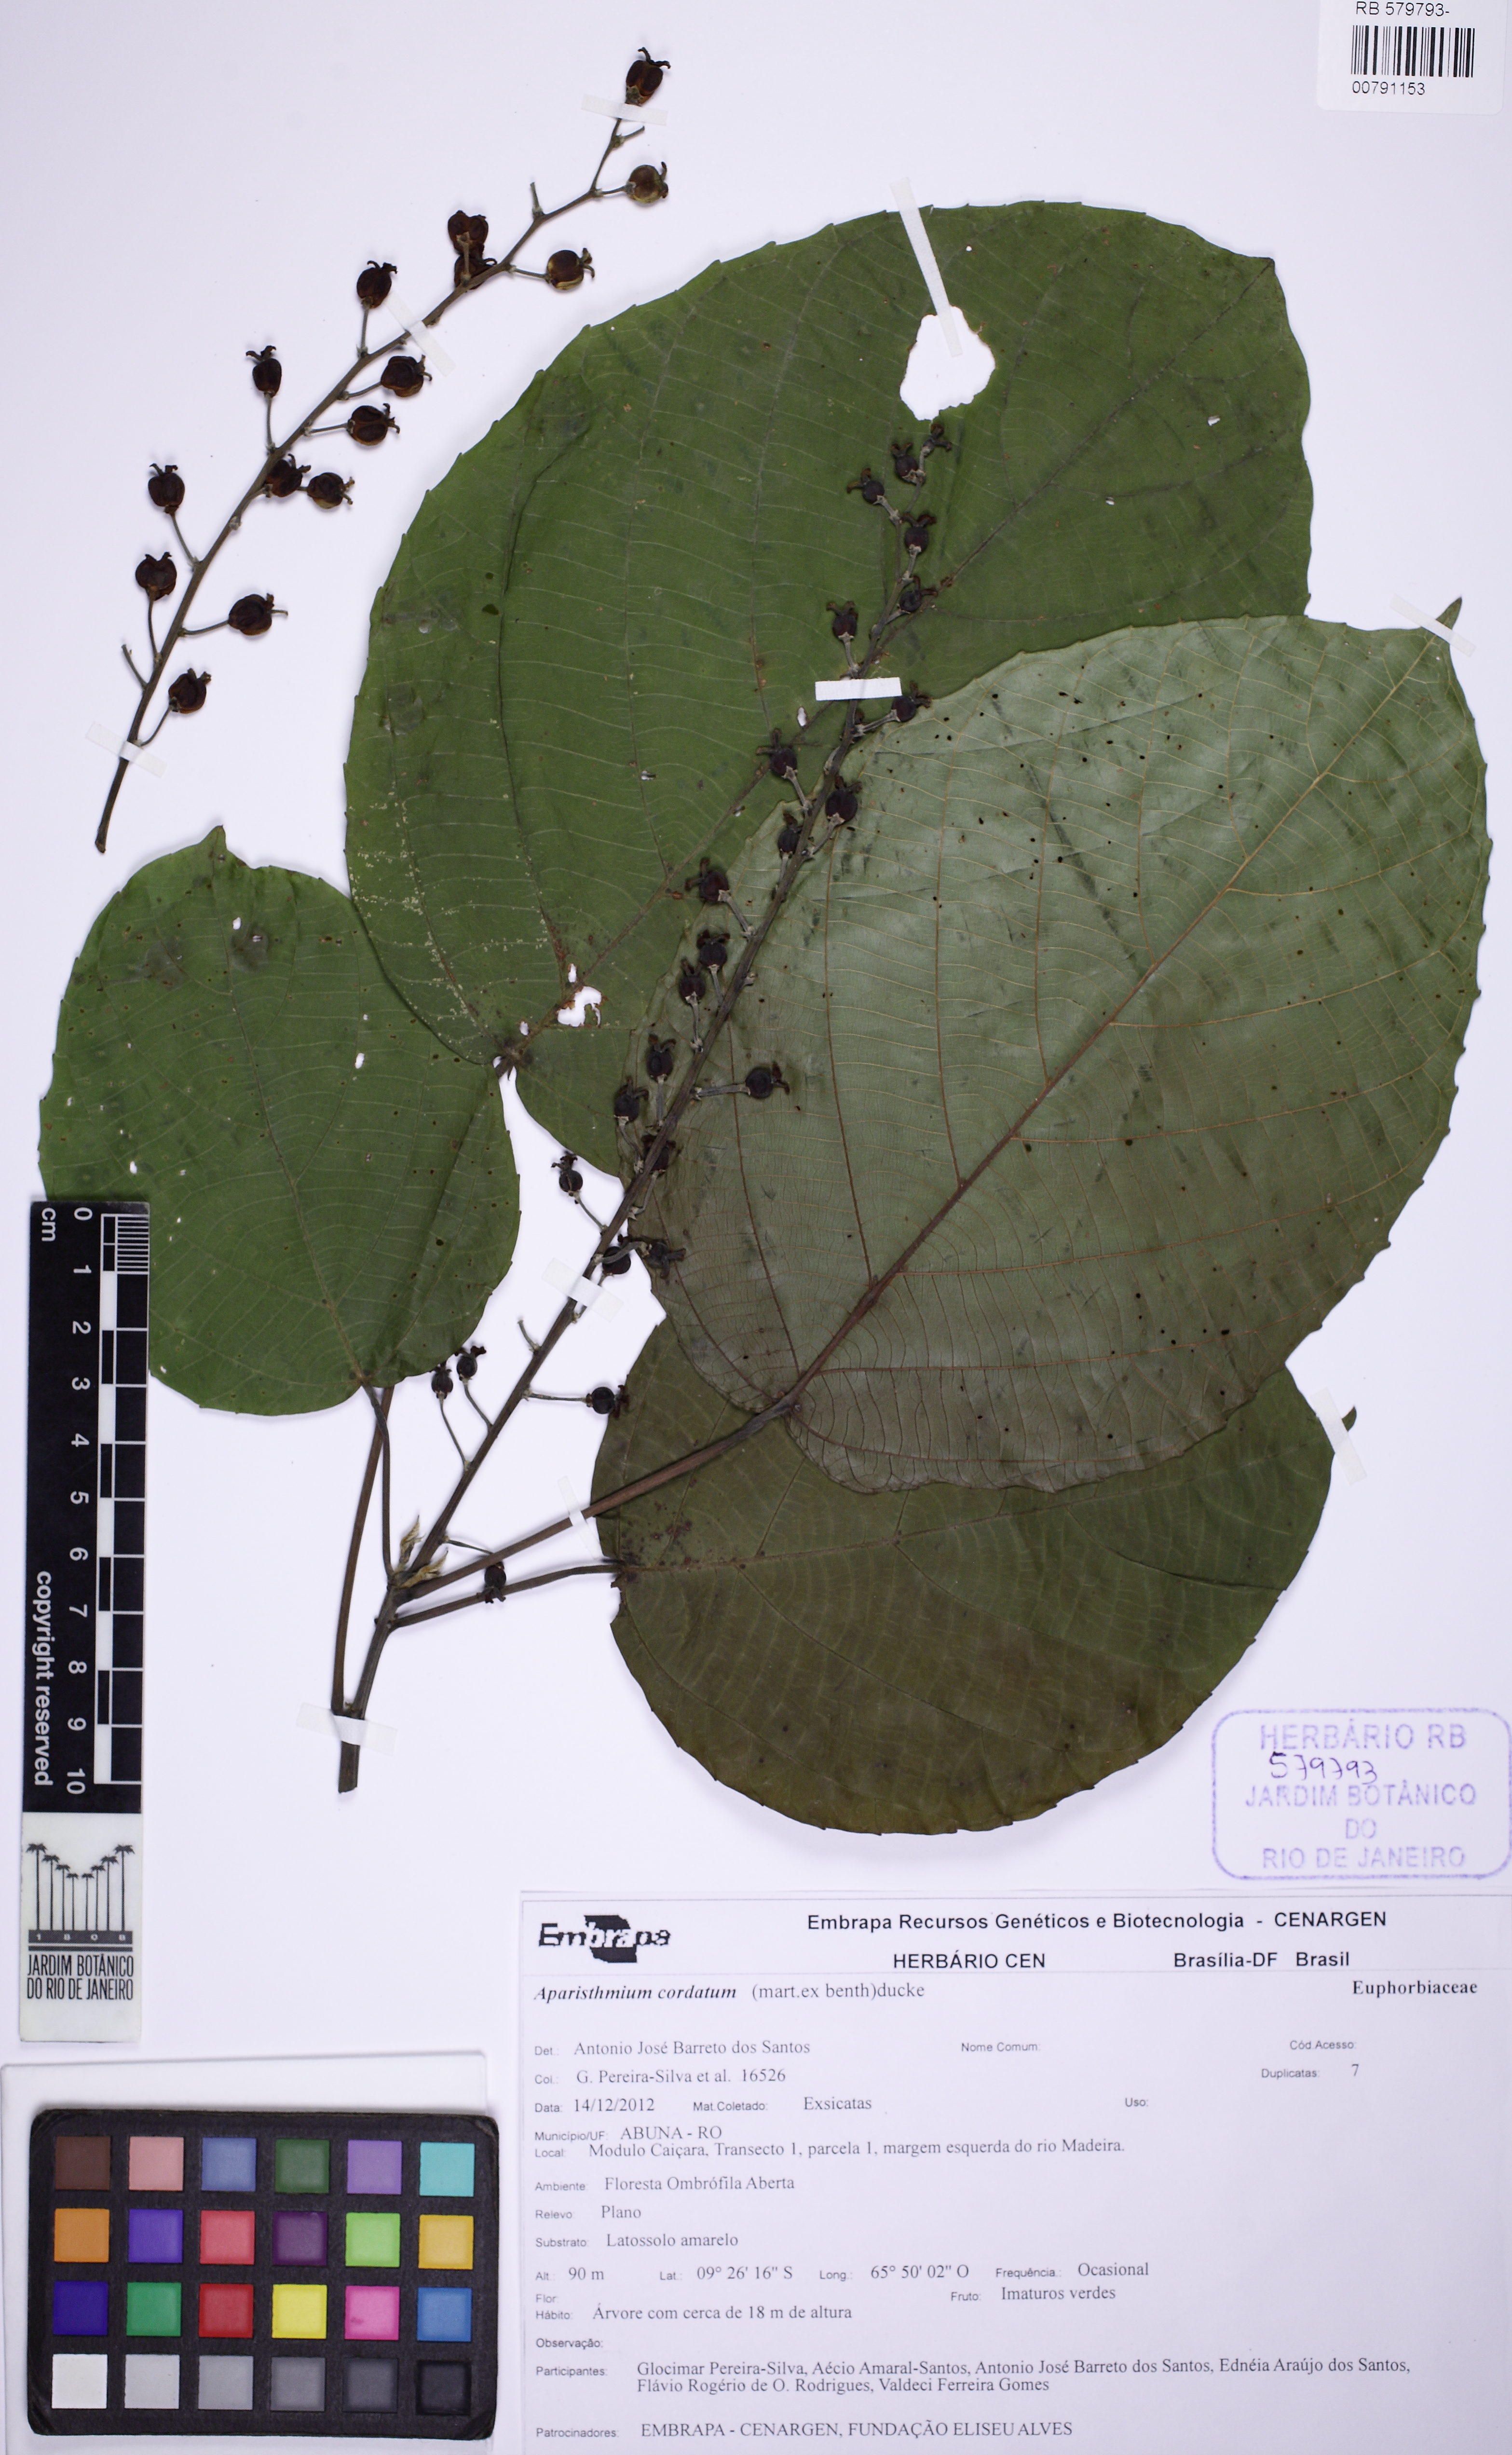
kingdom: Plantae
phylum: Tracheophyta
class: Magnoliopsida
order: Malpighiales
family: Euphorbiaceae
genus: Aparisthmium
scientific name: Aparisthmium cordatum
